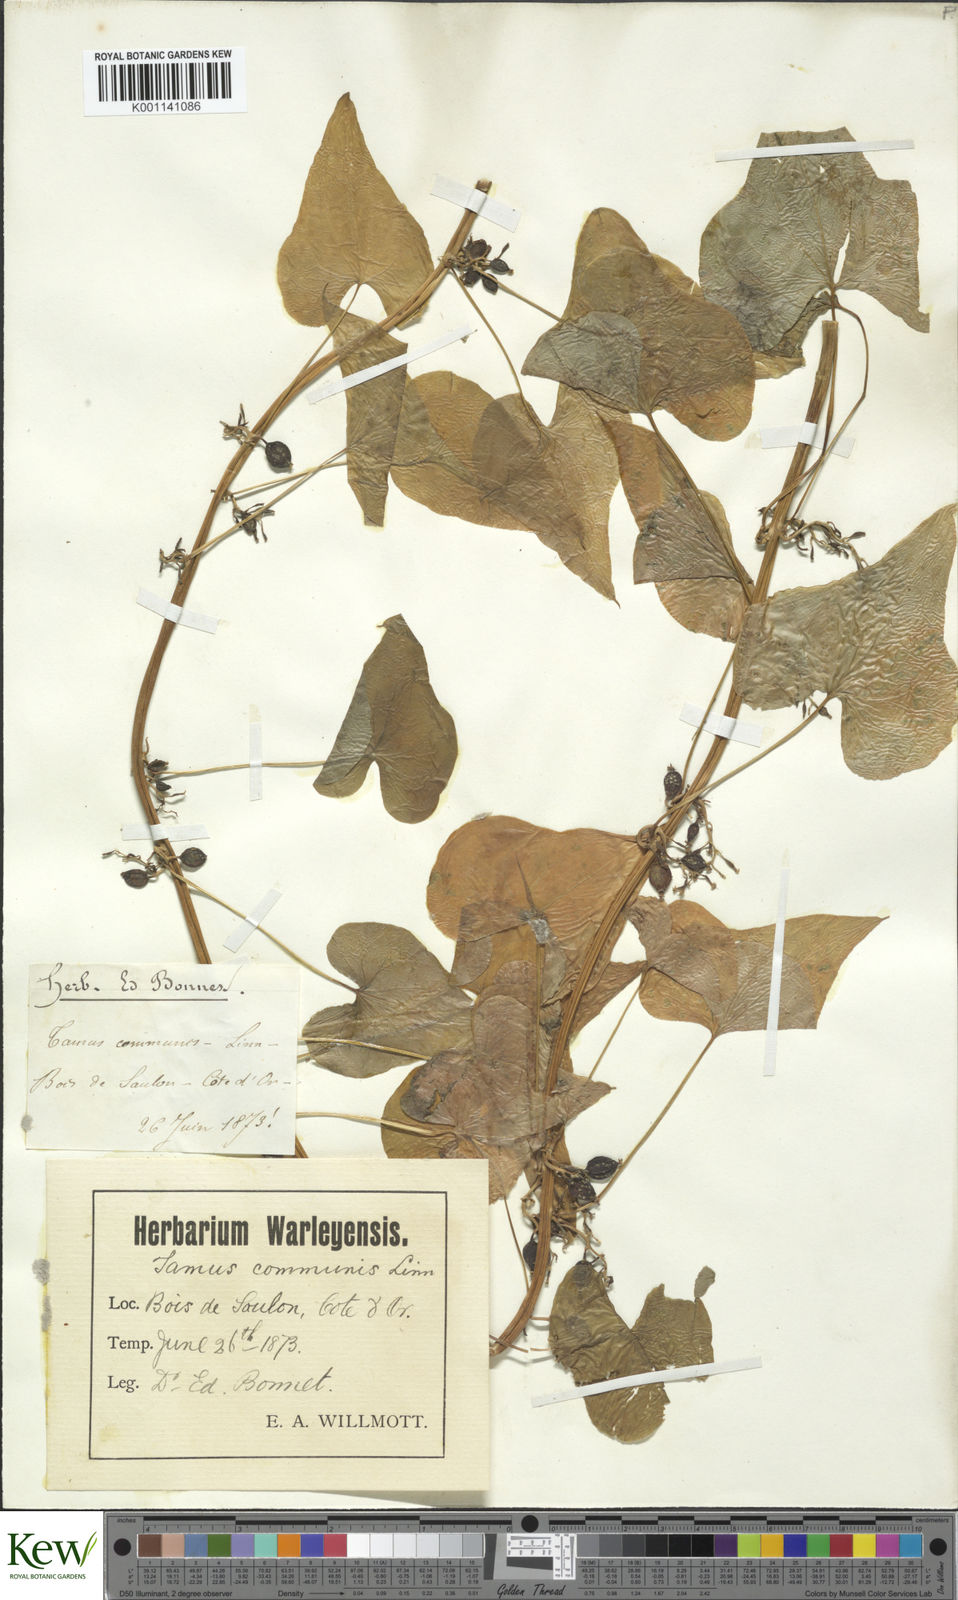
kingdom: Plantae
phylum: Tracheophyta
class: Liliopsida
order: Dioscoreales
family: Dioscoreaceae
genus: Dioscorea
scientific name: Dioscorea communis
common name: Black-bindweed
